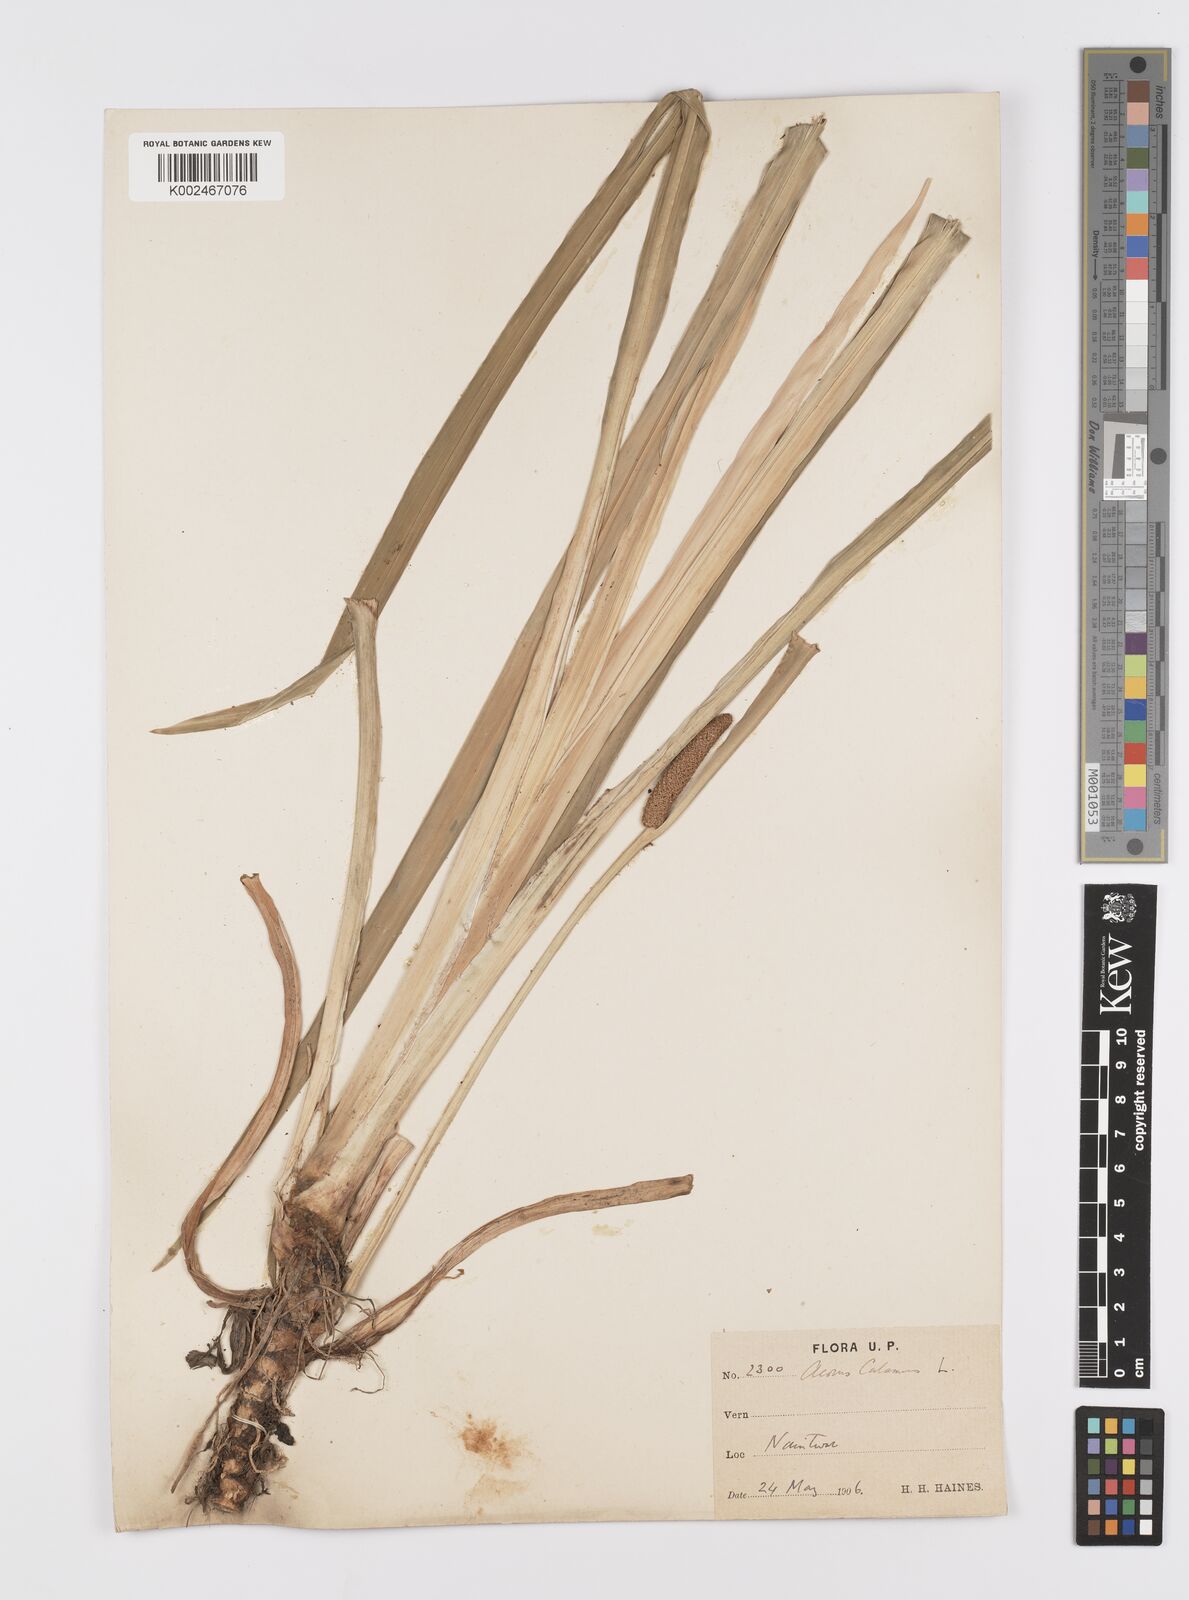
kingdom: Plantae
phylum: Tracheophyta
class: Liliopsida
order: Acorales
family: Acoraceae
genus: Acorus
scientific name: Acorus calamus
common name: Sweet-flag
